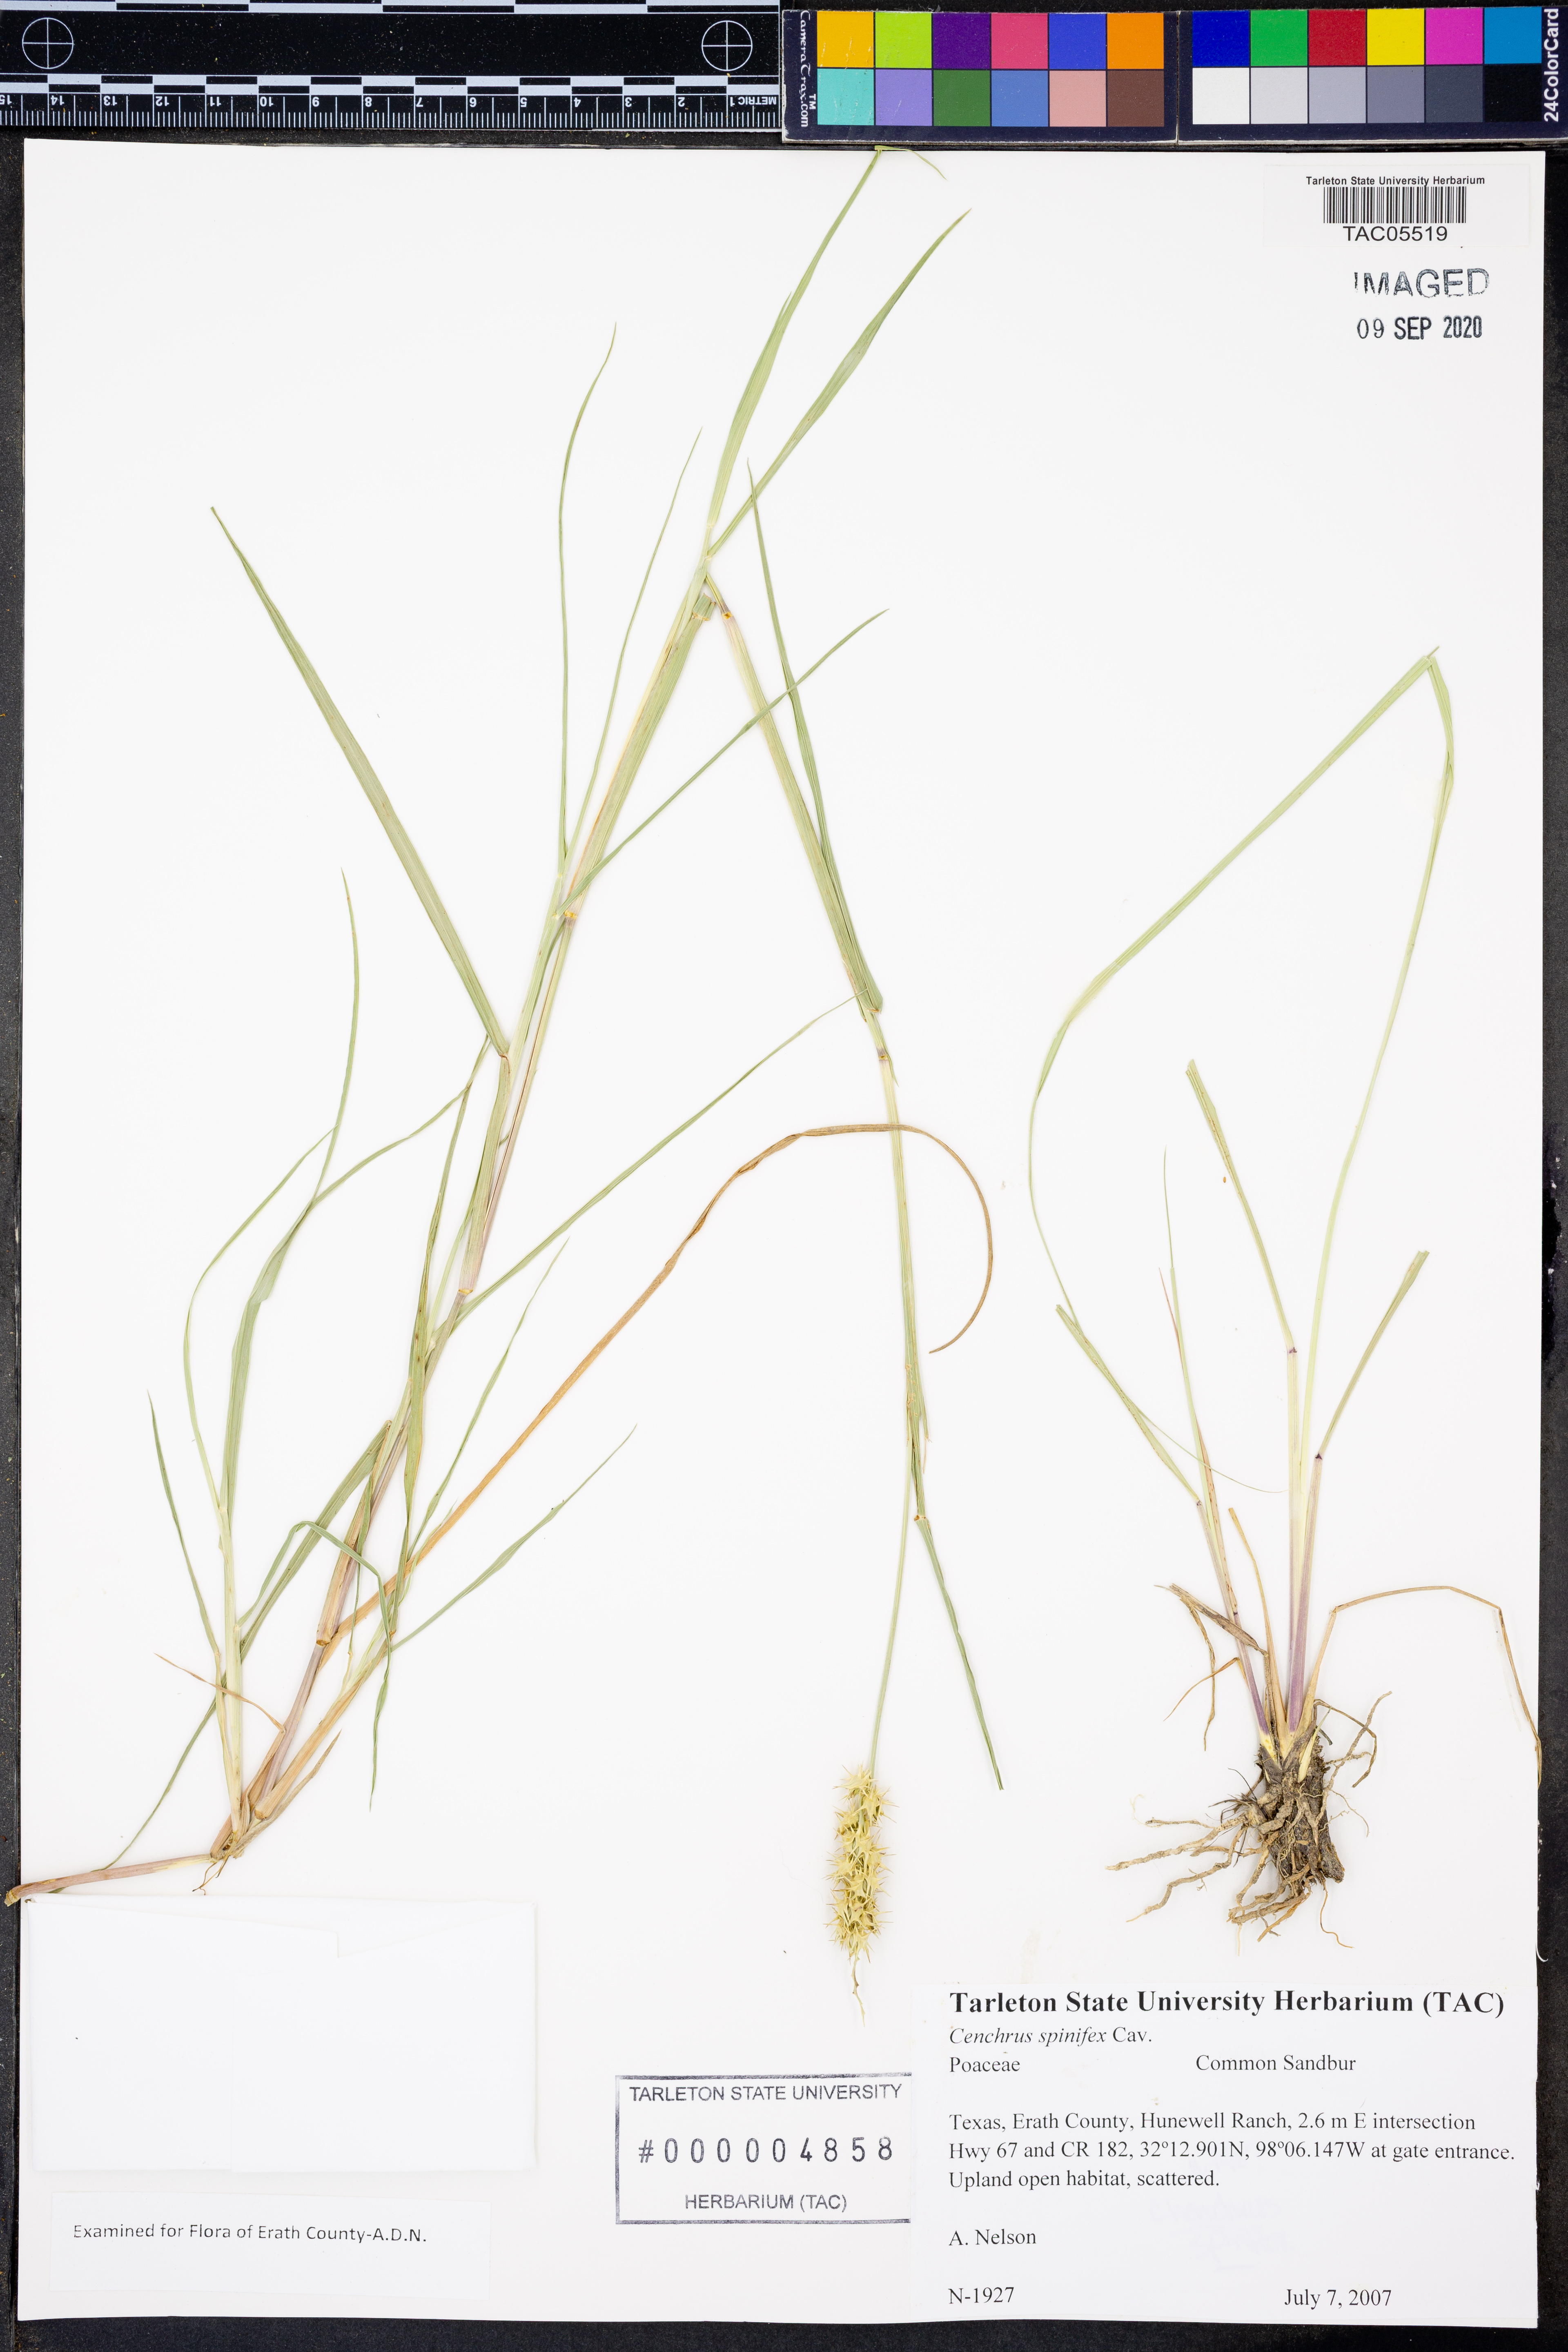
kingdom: Plantae
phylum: Tracheophyta
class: Liliopsida
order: Poales
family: Poaceae
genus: Cenchrus
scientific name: Cenchrus spinifex
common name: Coast sandbur
